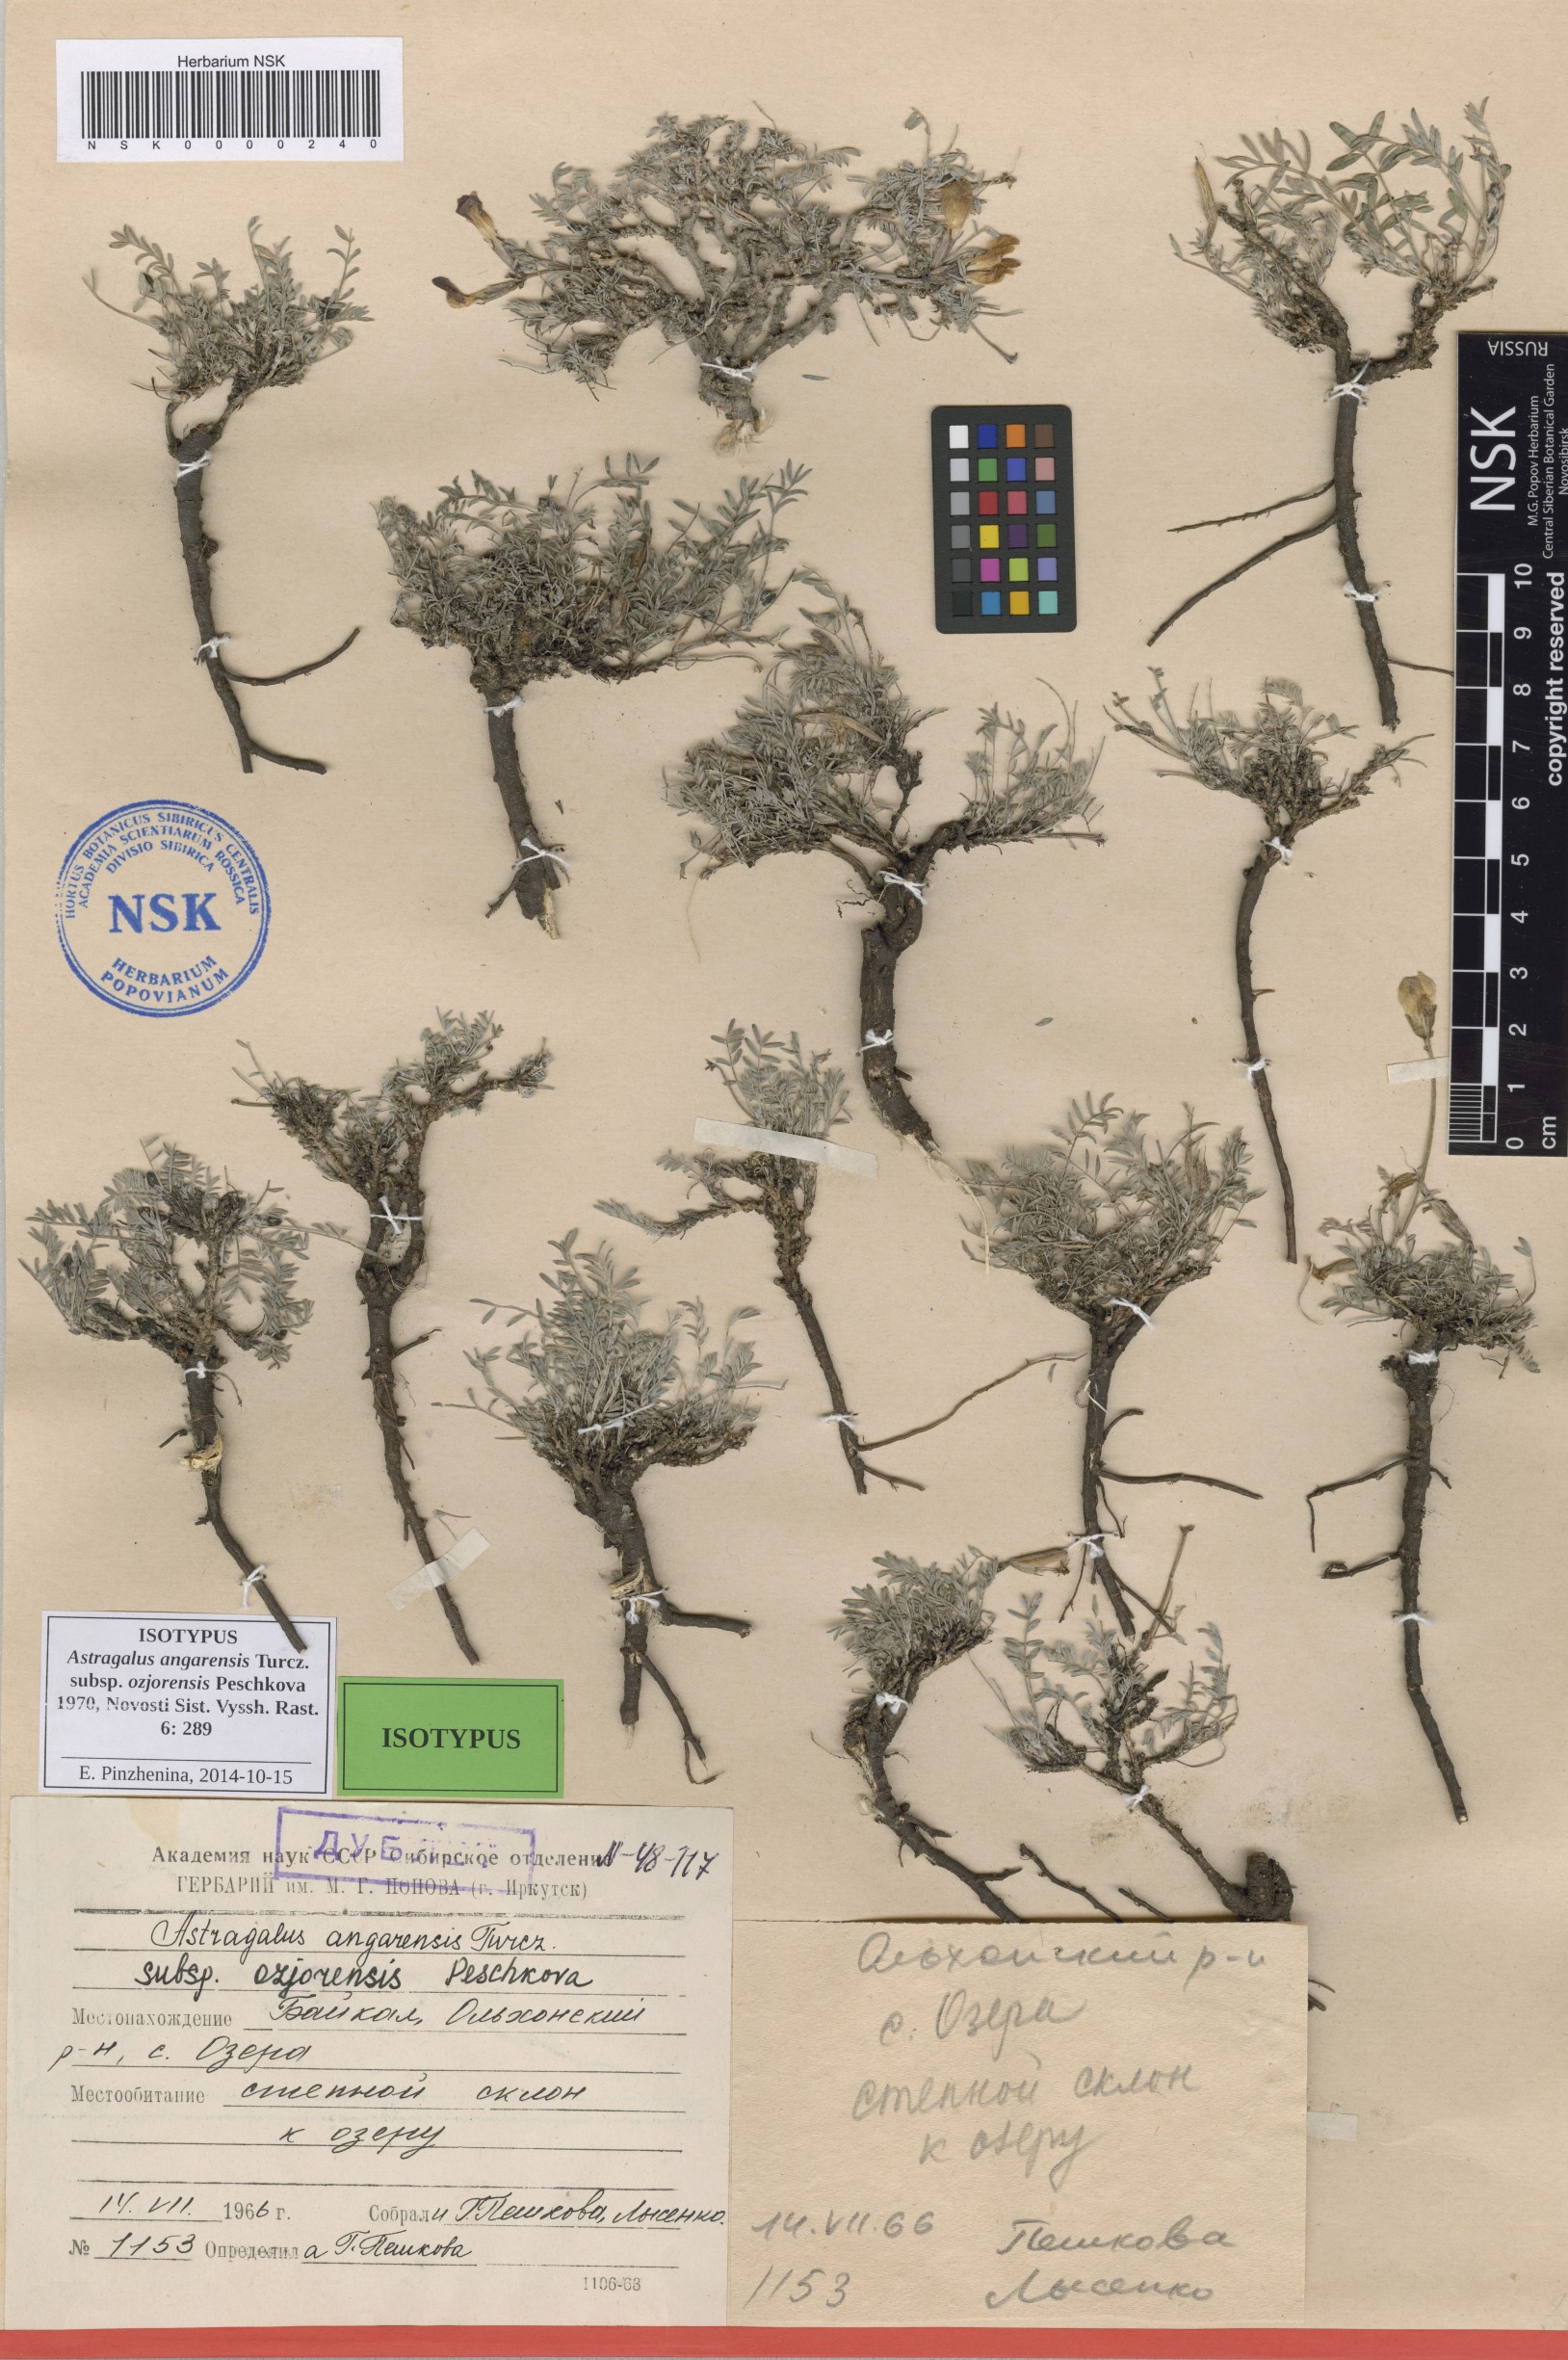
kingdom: Plantae
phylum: Tracheophyta
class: Magnoliopsida
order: Fabales
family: Fabaceae
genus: Astragalus
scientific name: Astragalus angarensis
